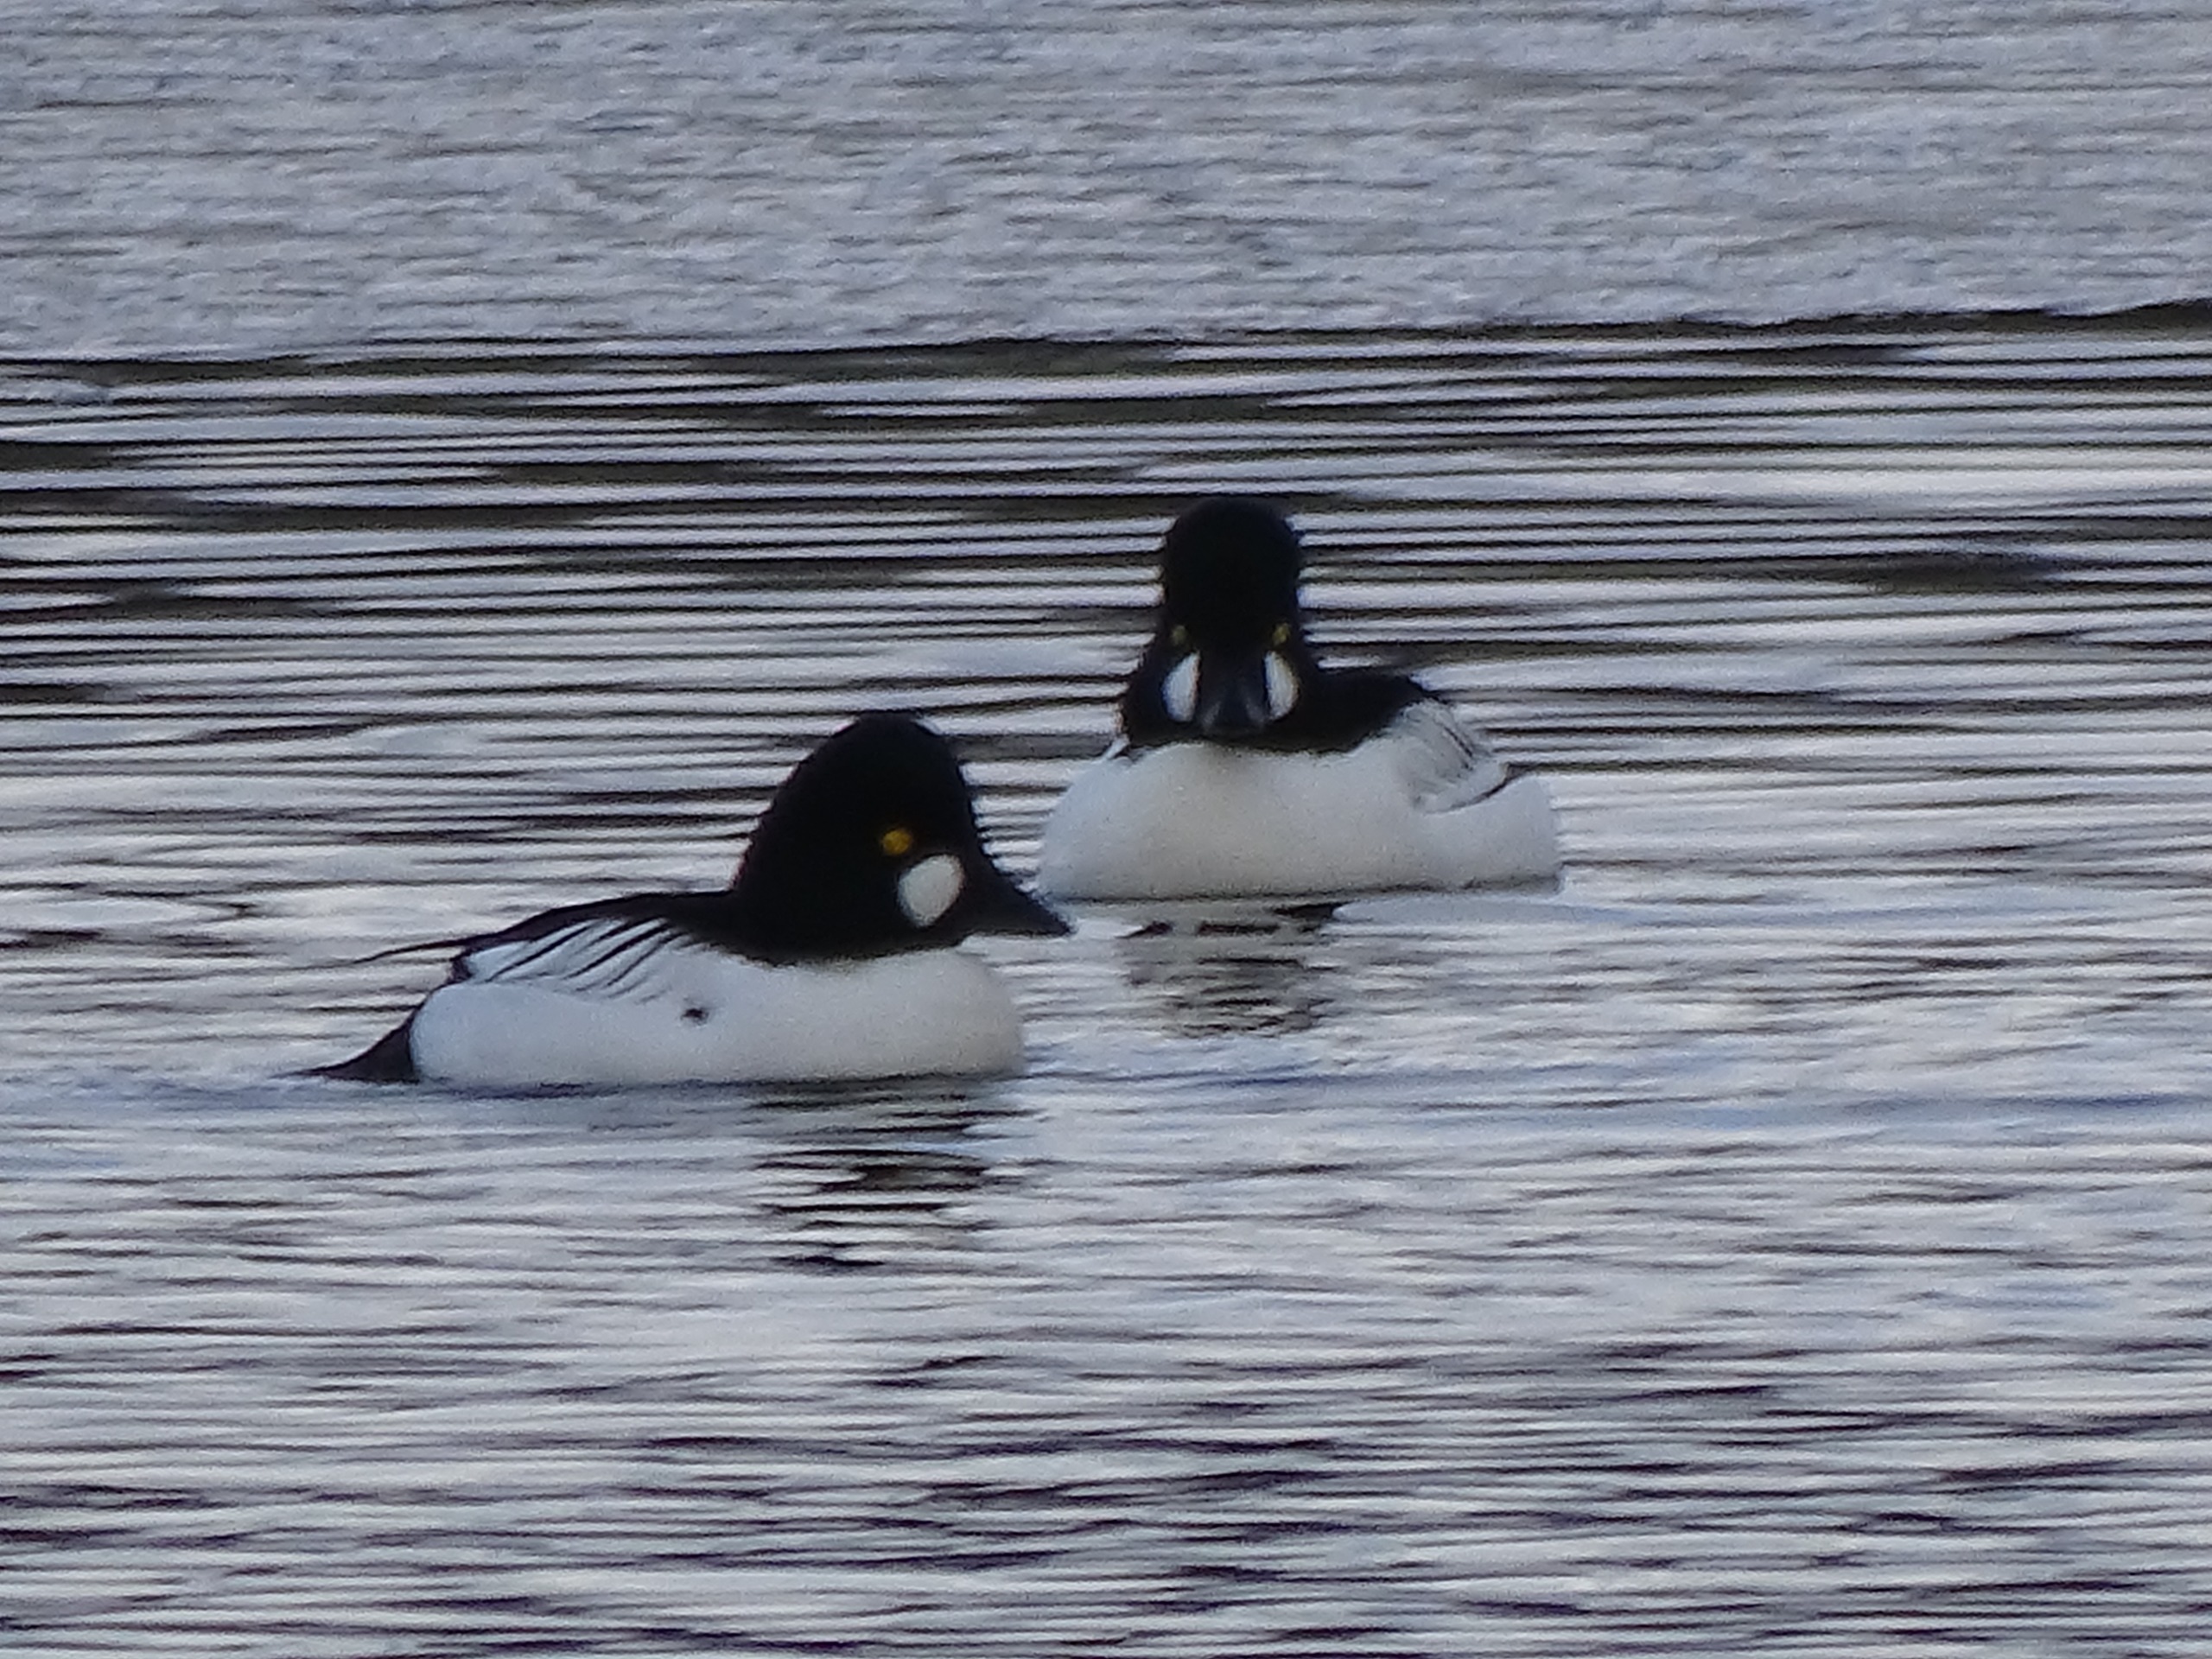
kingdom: Animalia
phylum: Chordata
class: Aves
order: Anseriformes
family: Anatidae
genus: Bucephala
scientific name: Bucephala clangula
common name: Hvinand
